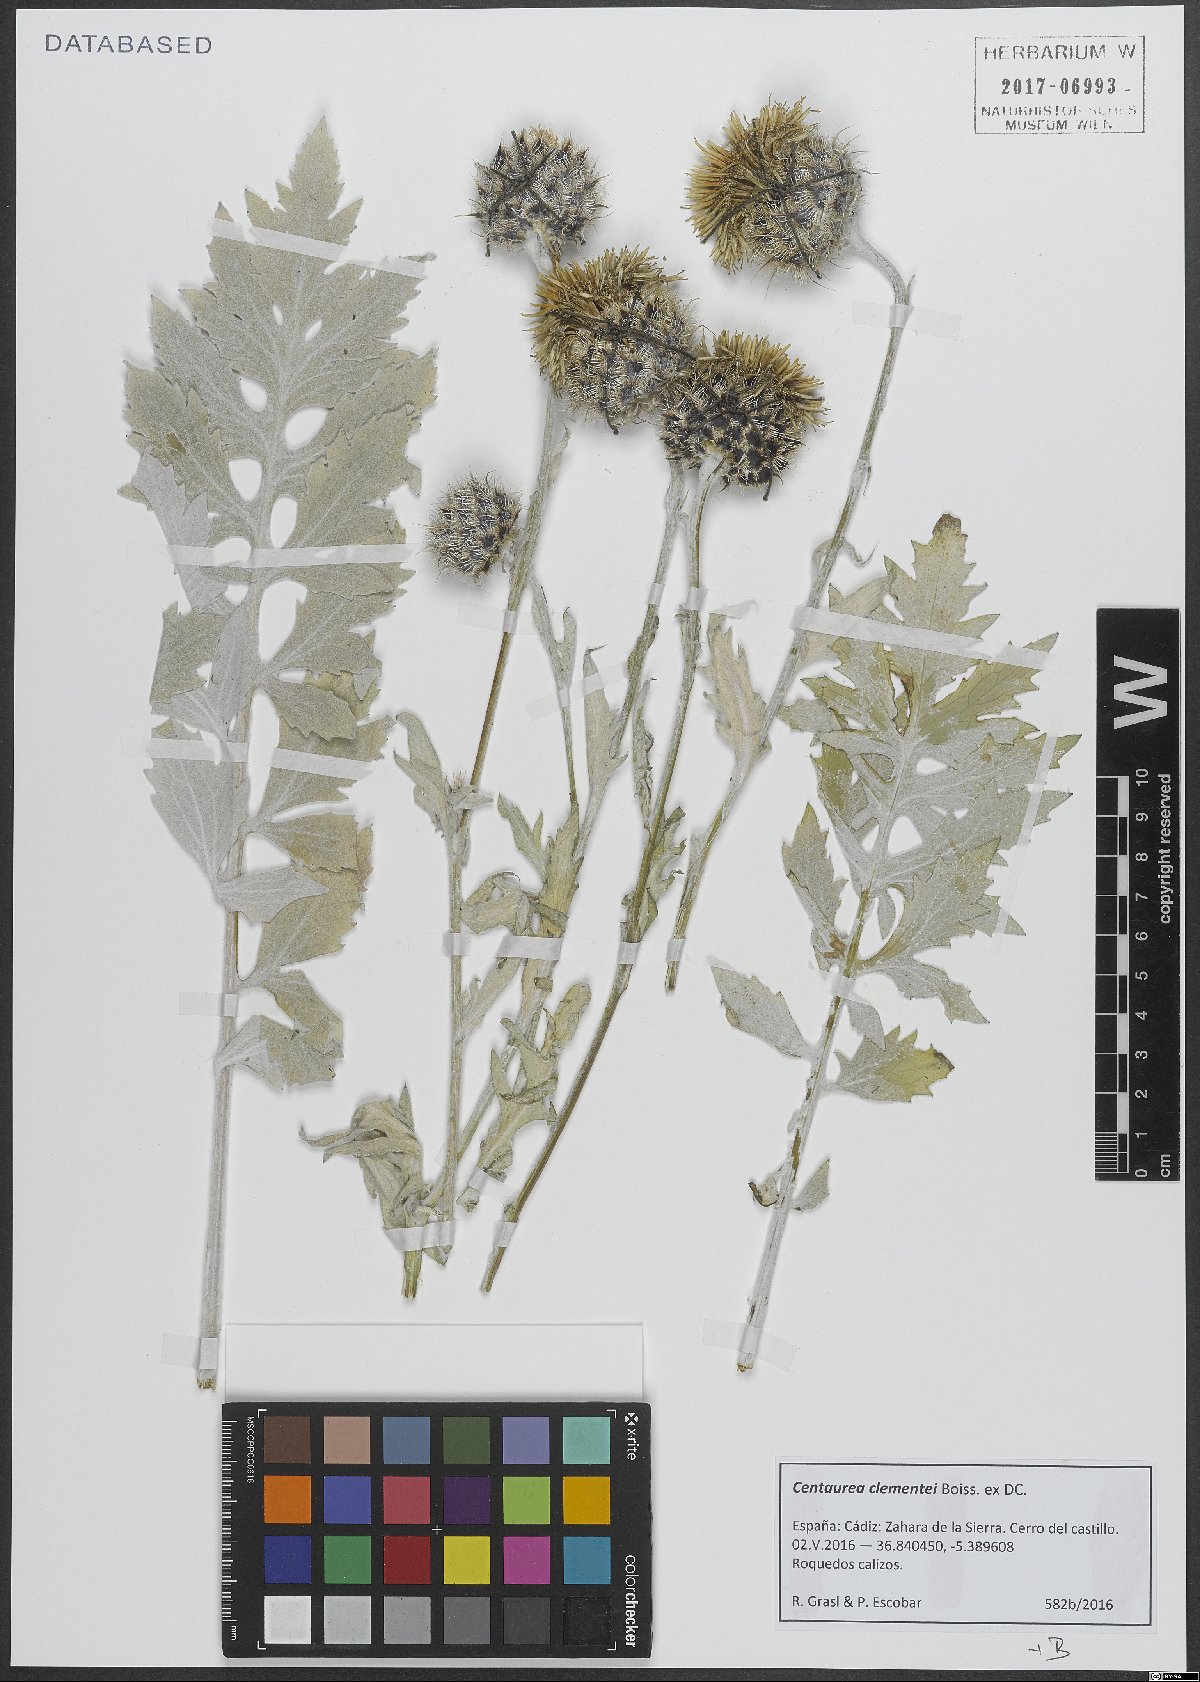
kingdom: Plantae
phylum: Tracheophyta
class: Magnoliopsida
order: Asterales
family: Asteraceae
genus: Centaurea
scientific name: Centaurea clementei
